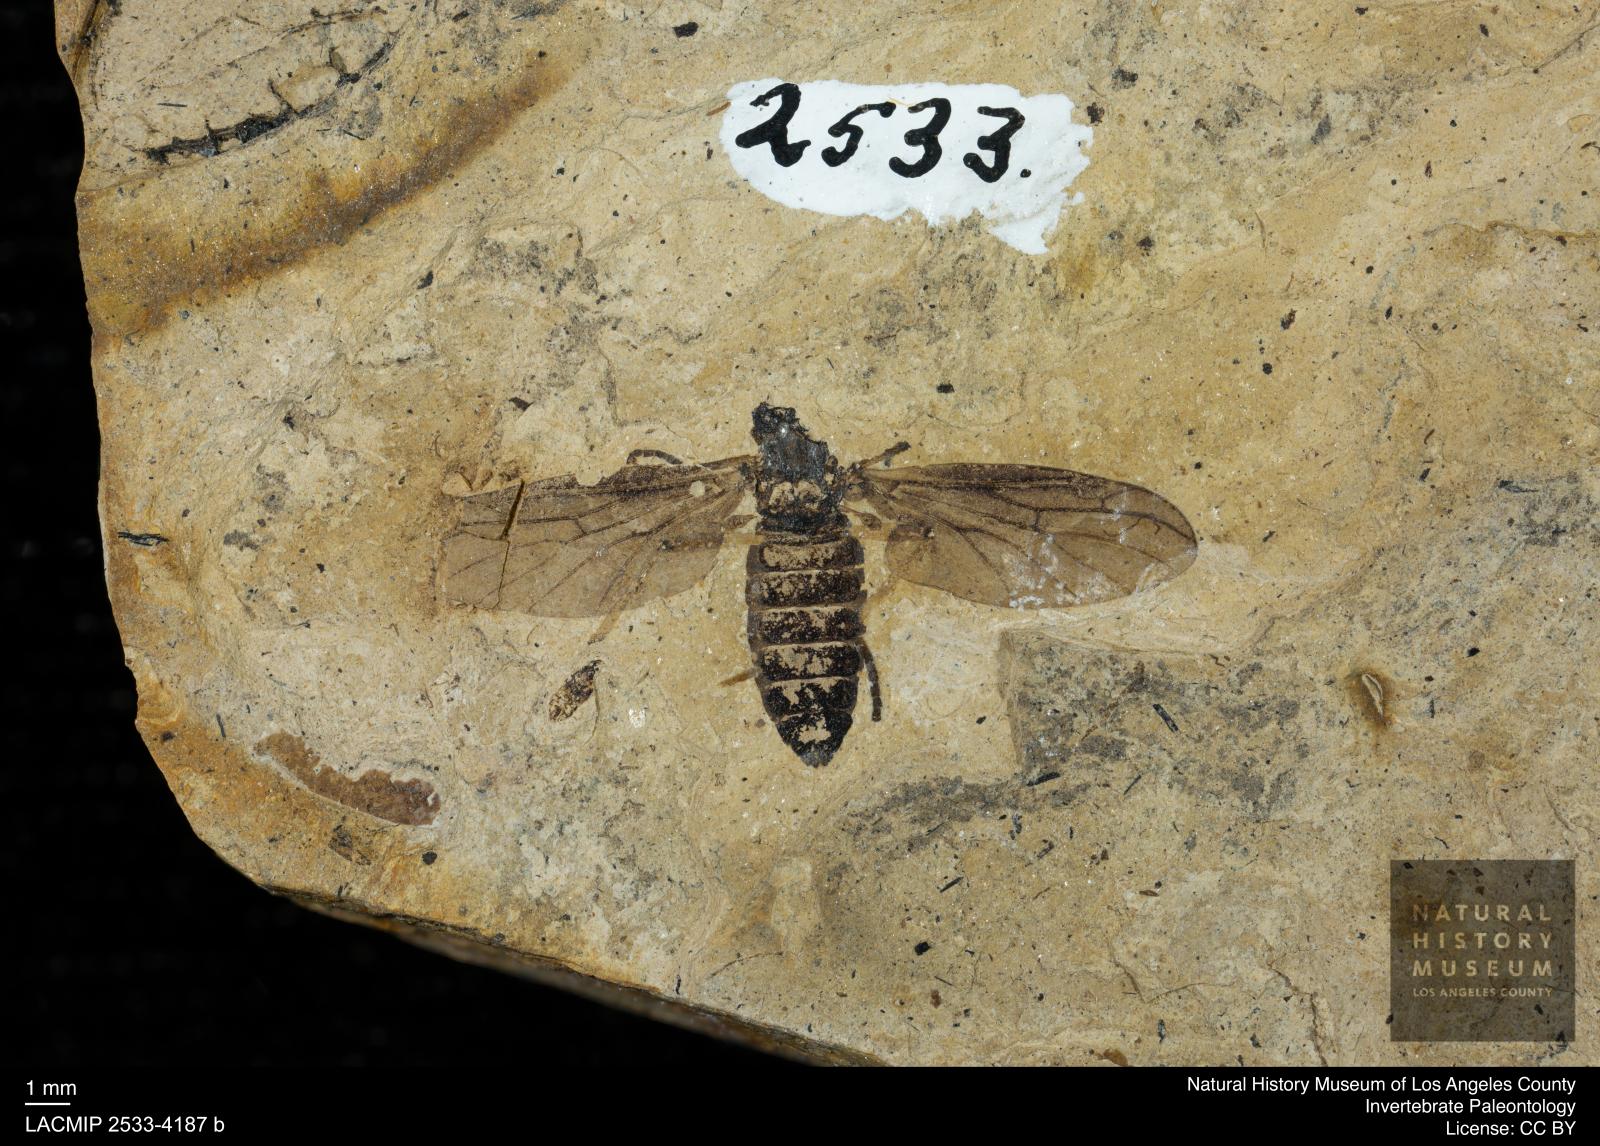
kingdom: Animalia
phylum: Arthropoda
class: Insecta
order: Diptera
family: Bibionidae
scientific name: Bibionidae
